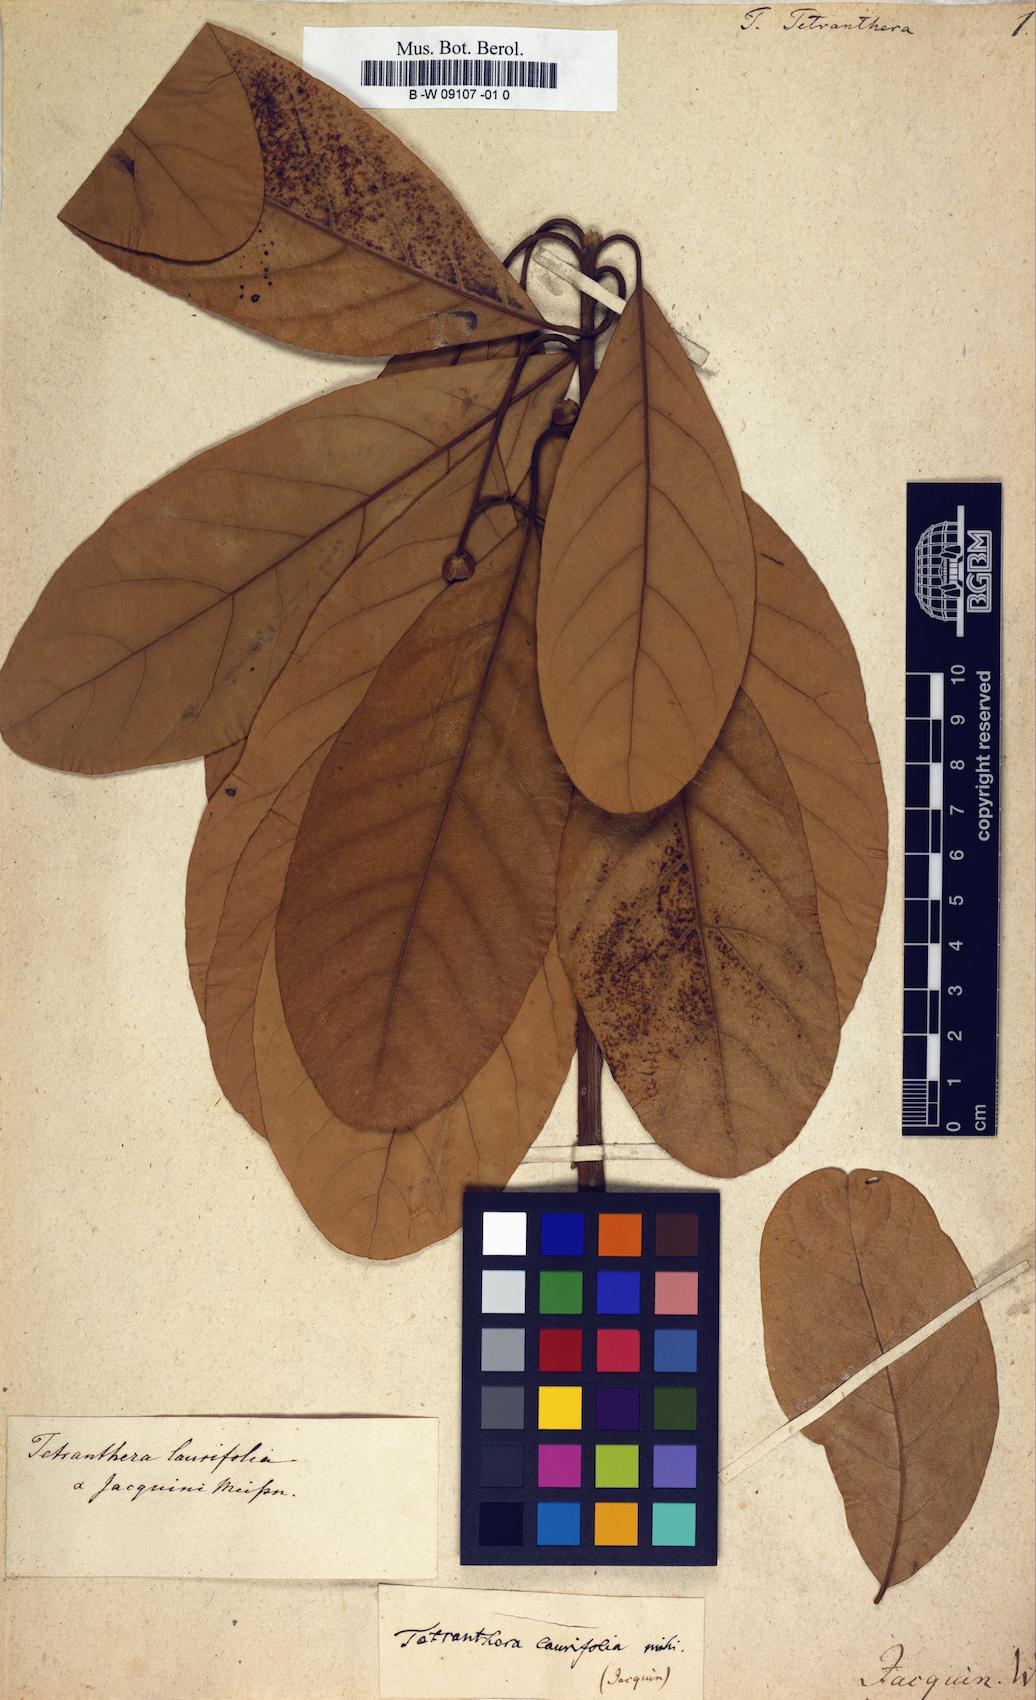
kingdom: Plantae
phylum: Tracheophyta
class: Magnoliopsida
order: Laurales
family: Lauraceae
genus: Litsea
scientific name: Litsea glutinosa
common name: Indian-laurel
